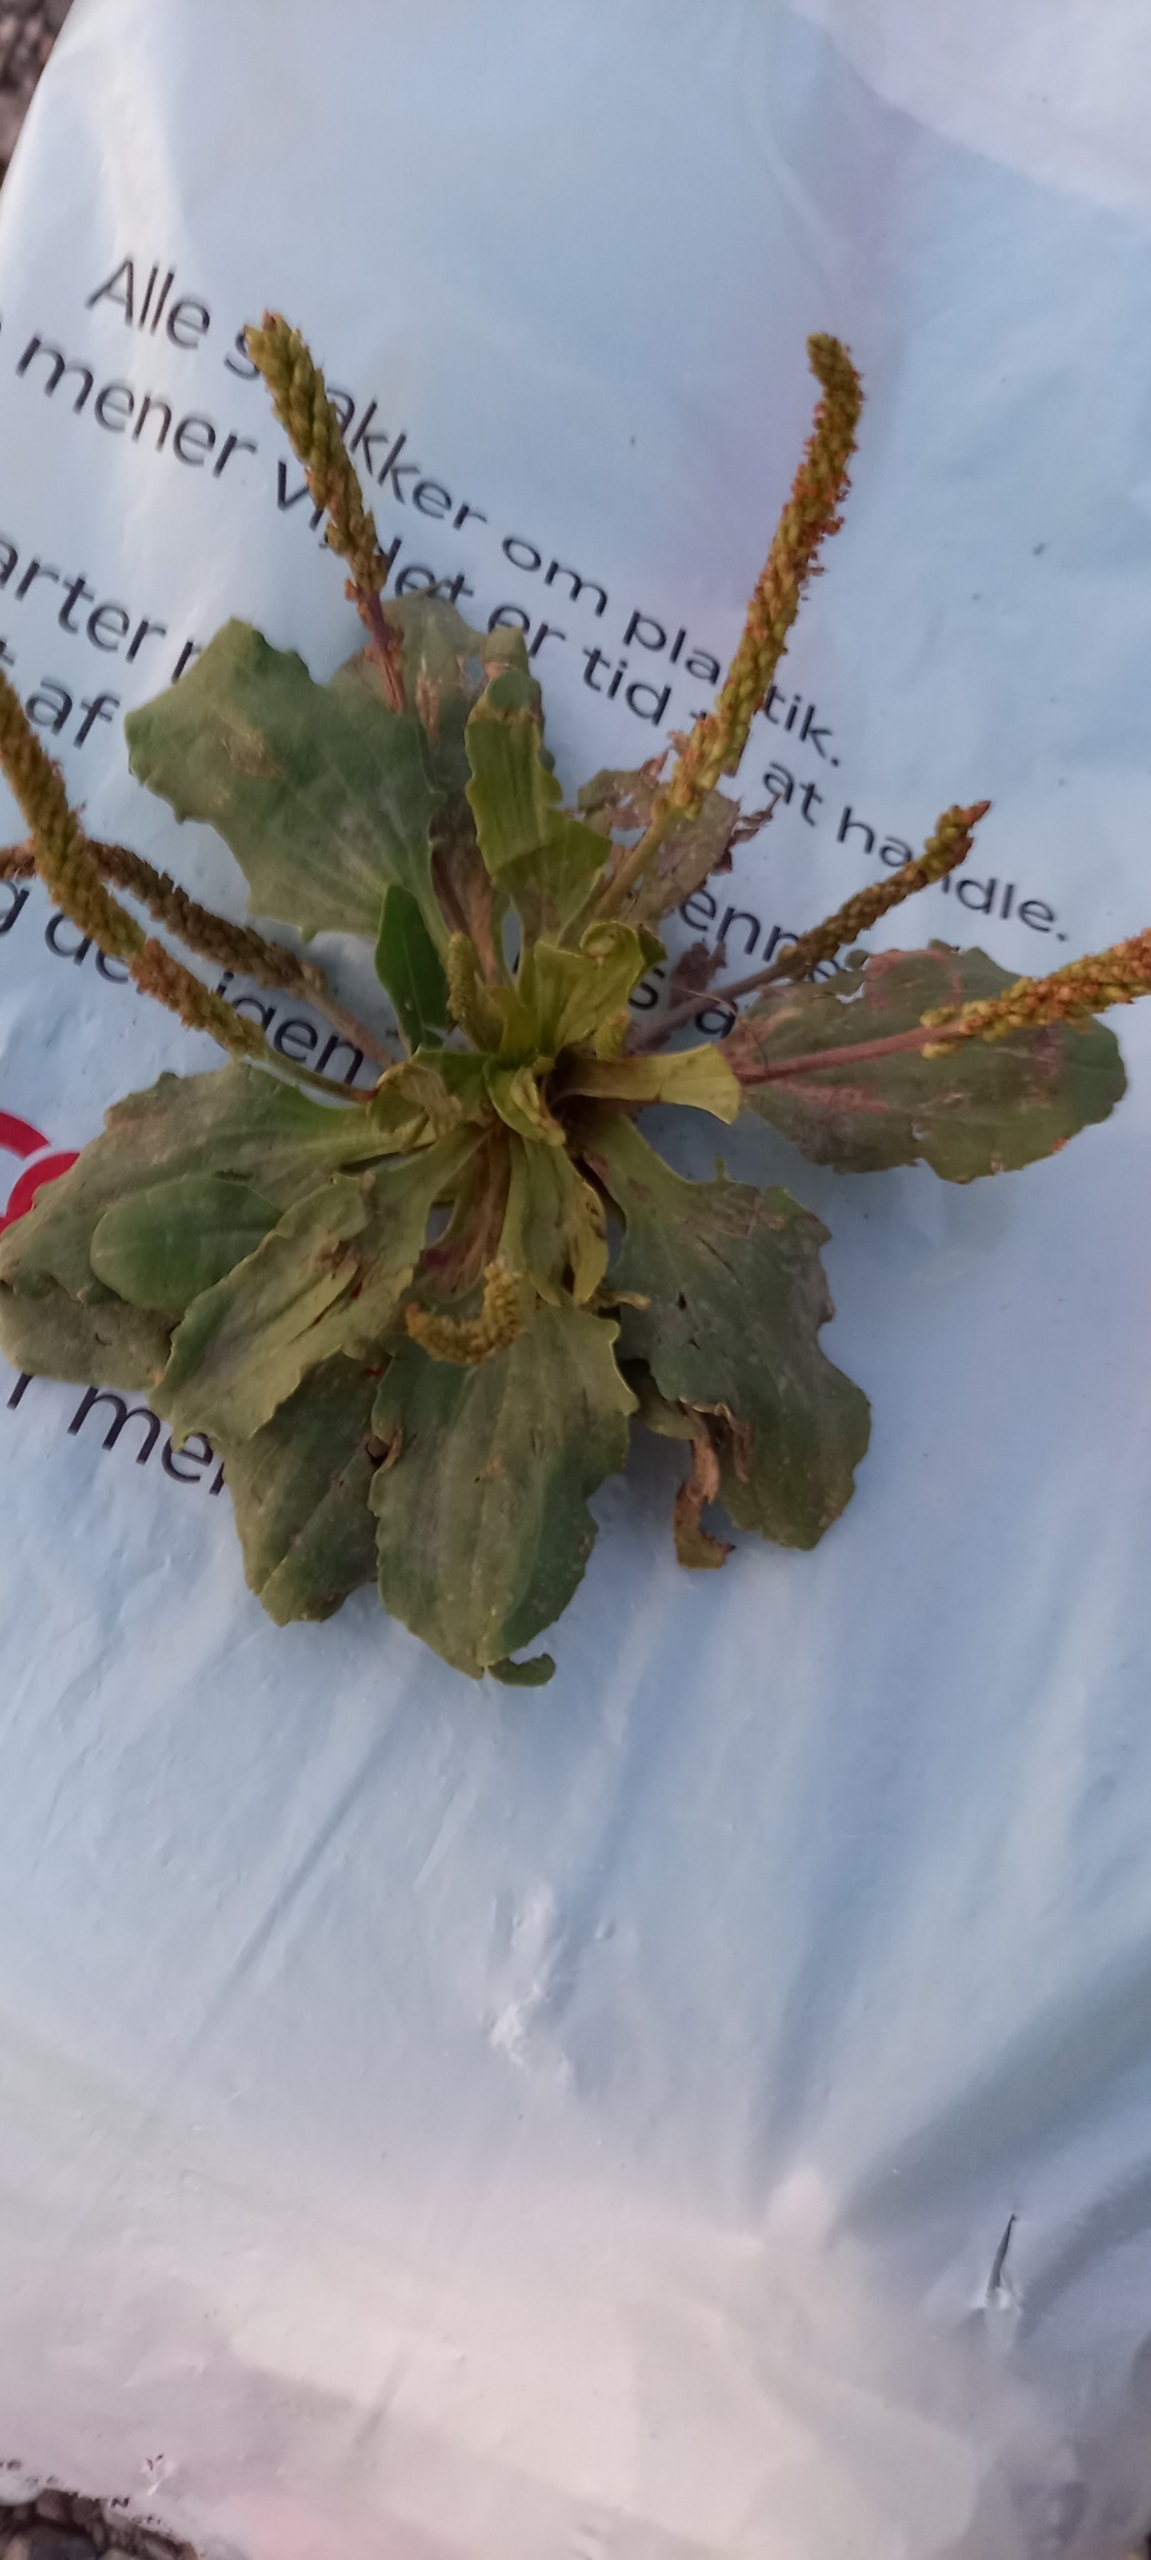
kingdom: Plantae
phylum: Tracheophyta
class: Magnoliopsida
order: Lamiales
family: Plantaginaceae
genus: Plantago
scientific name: Plantago major
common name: Glat vejbred
